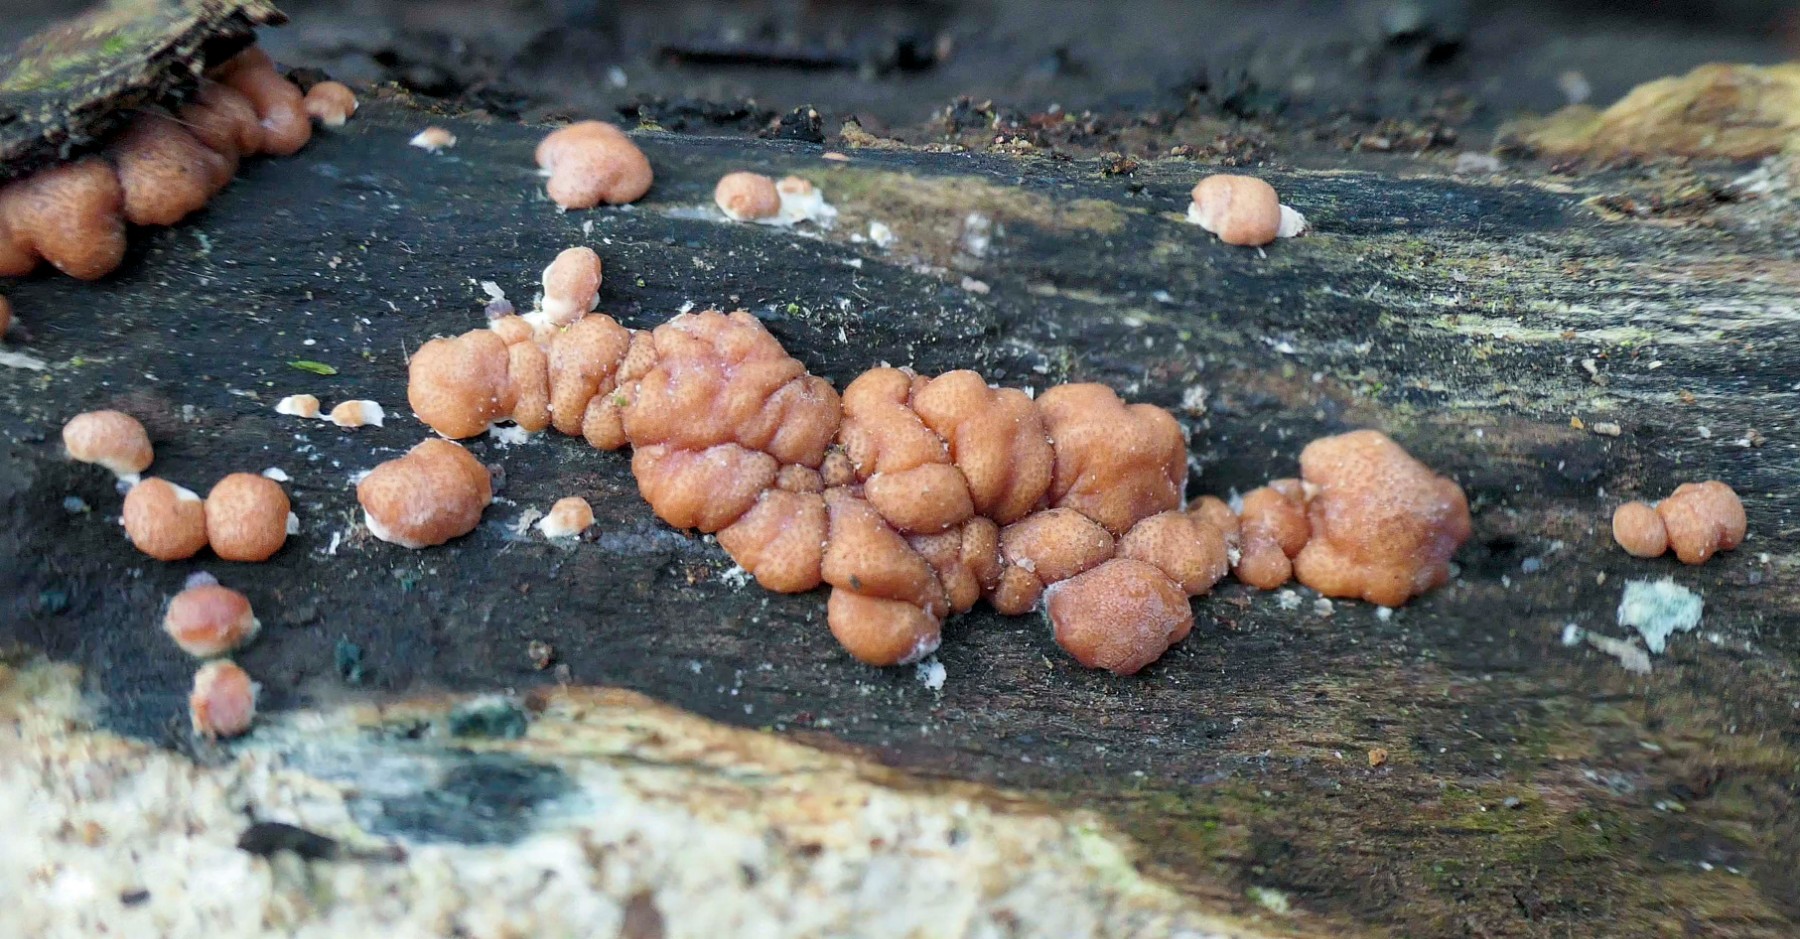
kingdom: Fungi
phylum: Ascomycota
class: Sordariomycetes
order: Hypocreales
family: Hypocreaceae
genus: Trichoderma
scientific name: Trichoderma europaeum
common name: rosabrun kødkerne
